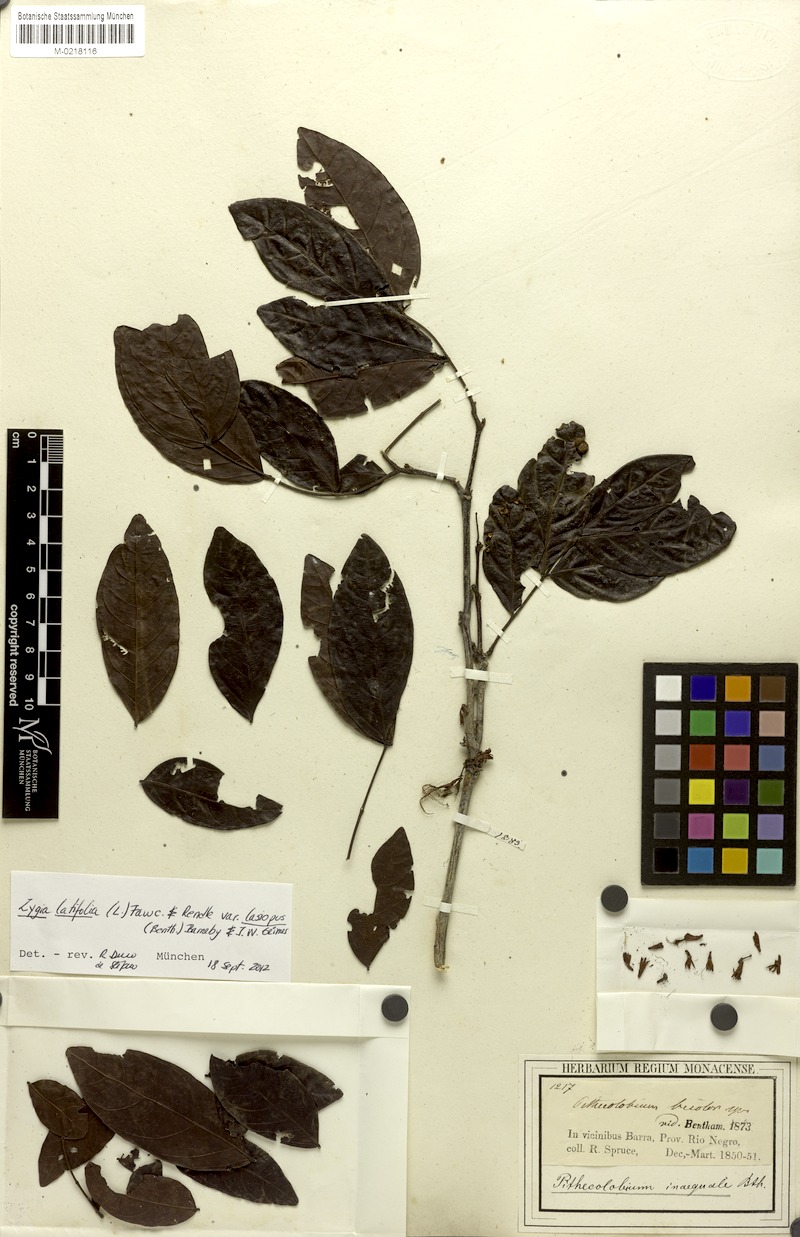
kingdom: Plantae
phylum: Tracheophyta
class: Magnoliopsida
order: Fabales
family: Fabaceae
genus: Zygia
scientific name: Zygia latifolia
